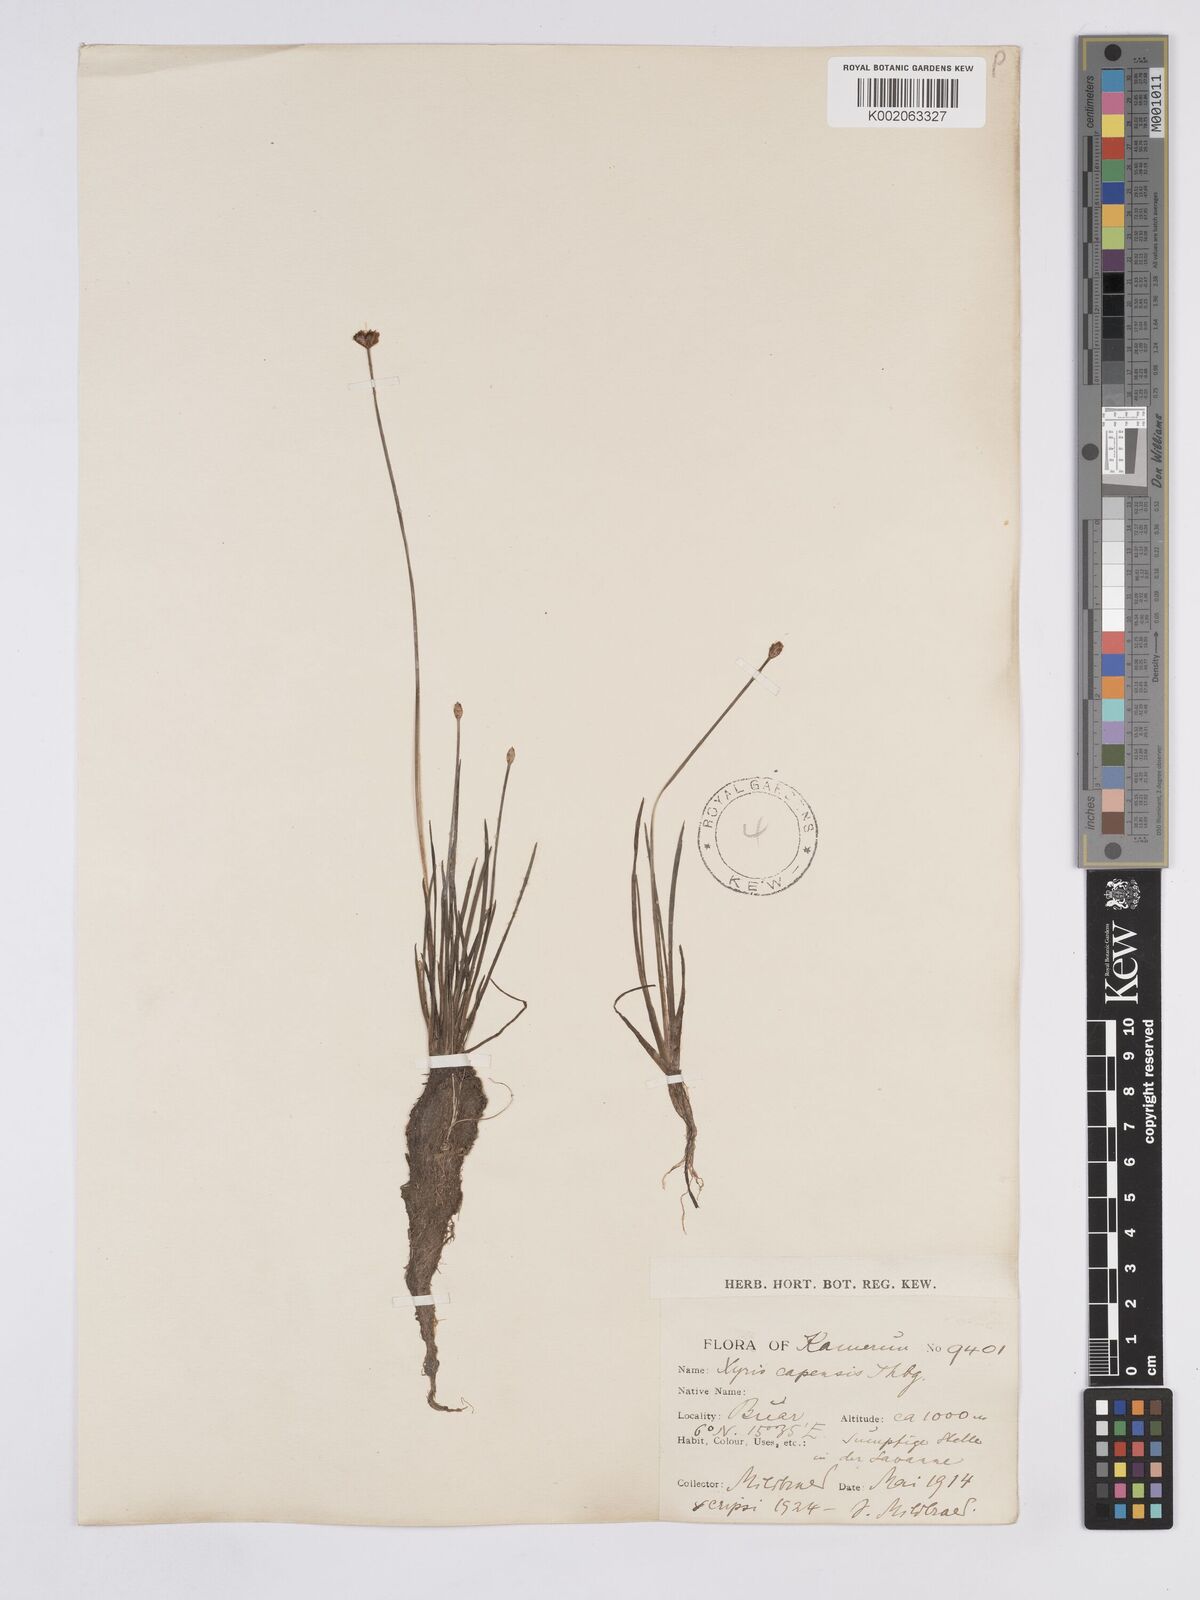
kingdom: Plantae
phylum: Tracheophyta
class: Liliopsida
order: Poales
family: Xyridaceae
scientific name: Xyridaceae
